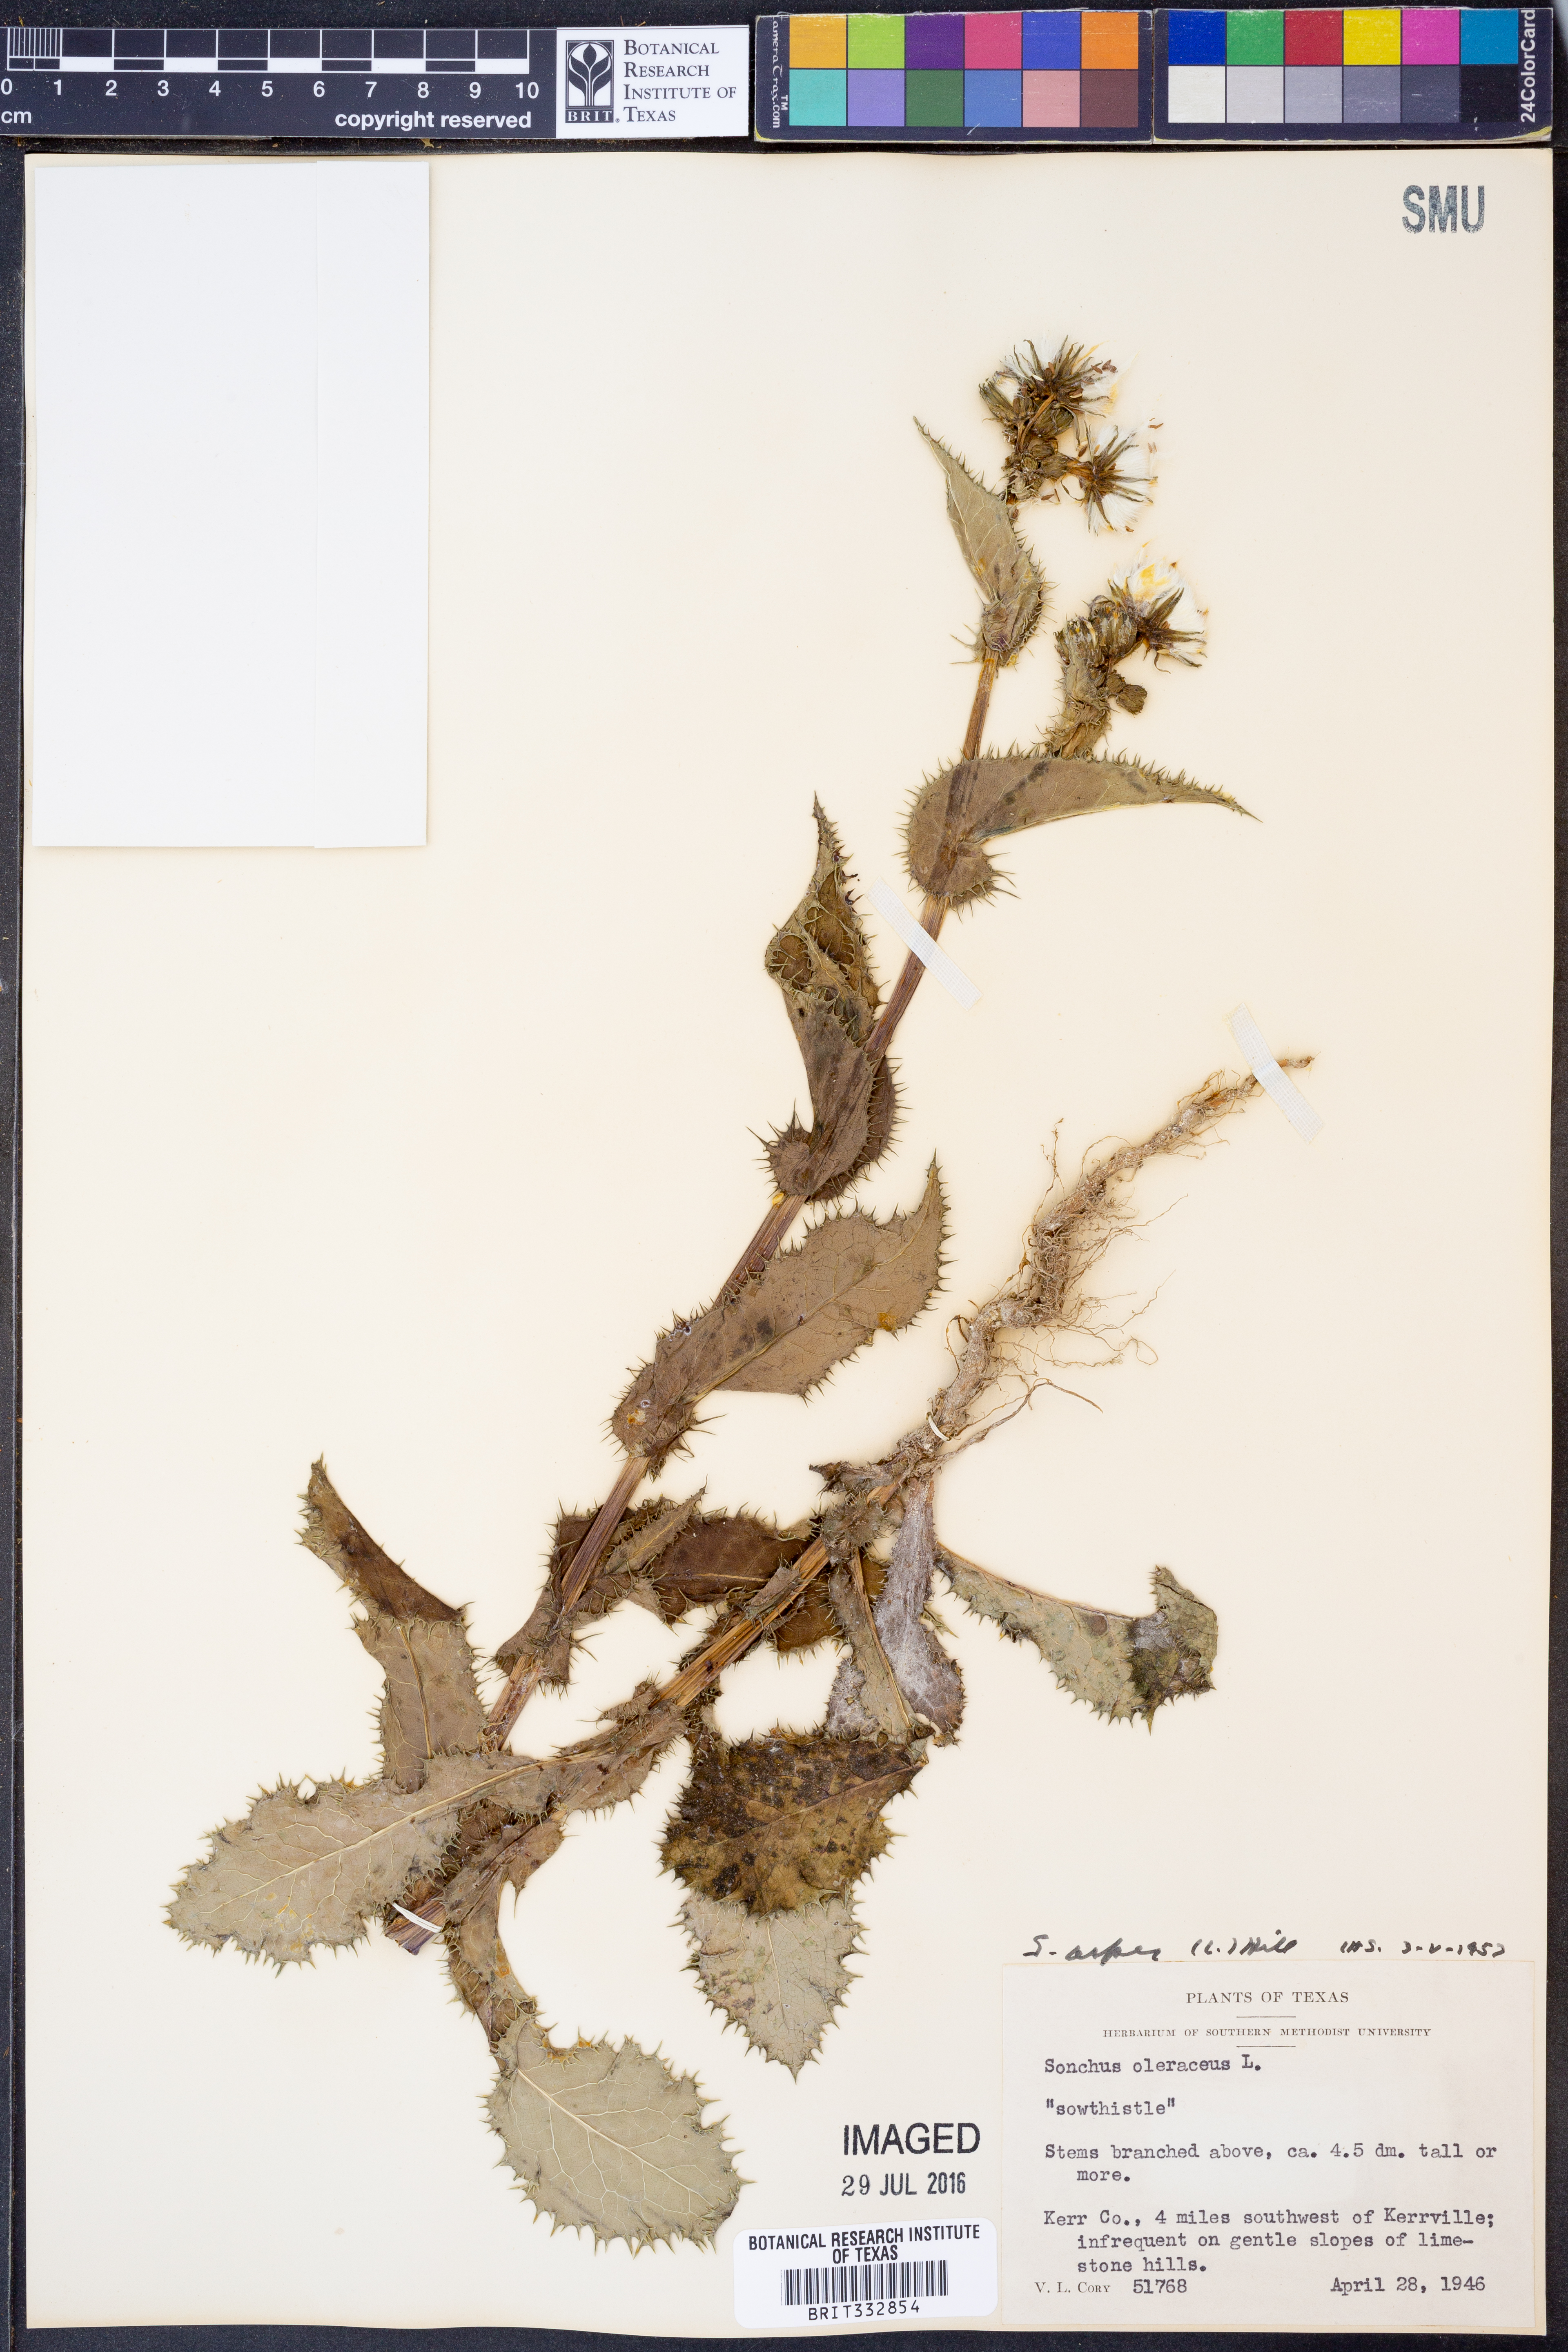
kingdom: Plantae
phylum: Tracheophyta
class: Magnoliopsida
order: Asterales
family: Asteraceae
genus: Sonchus
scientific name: Sonchus asper
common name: Prickly sow-thistle
